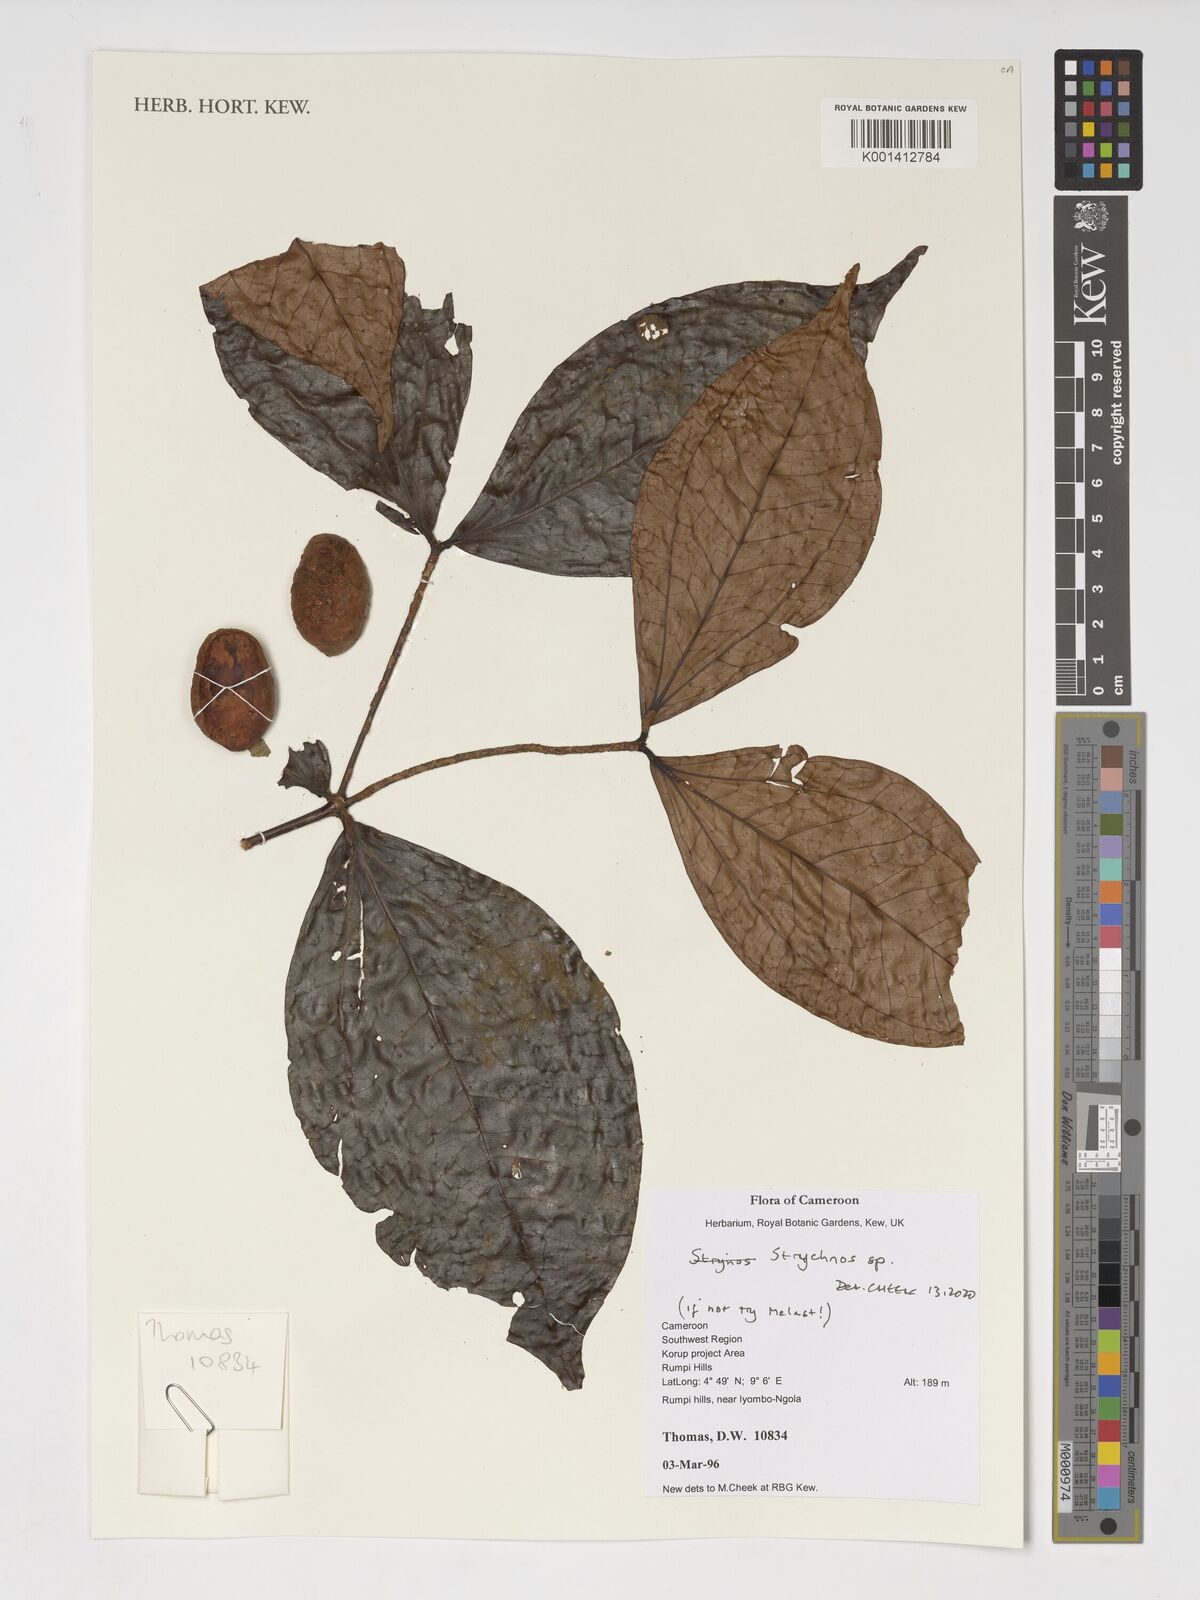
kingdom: Plantae
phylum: Tracheophyta
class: Magnoliopsida
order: Gentianales
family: Loganiaceae
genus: Strychnos
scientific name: Strychnos
